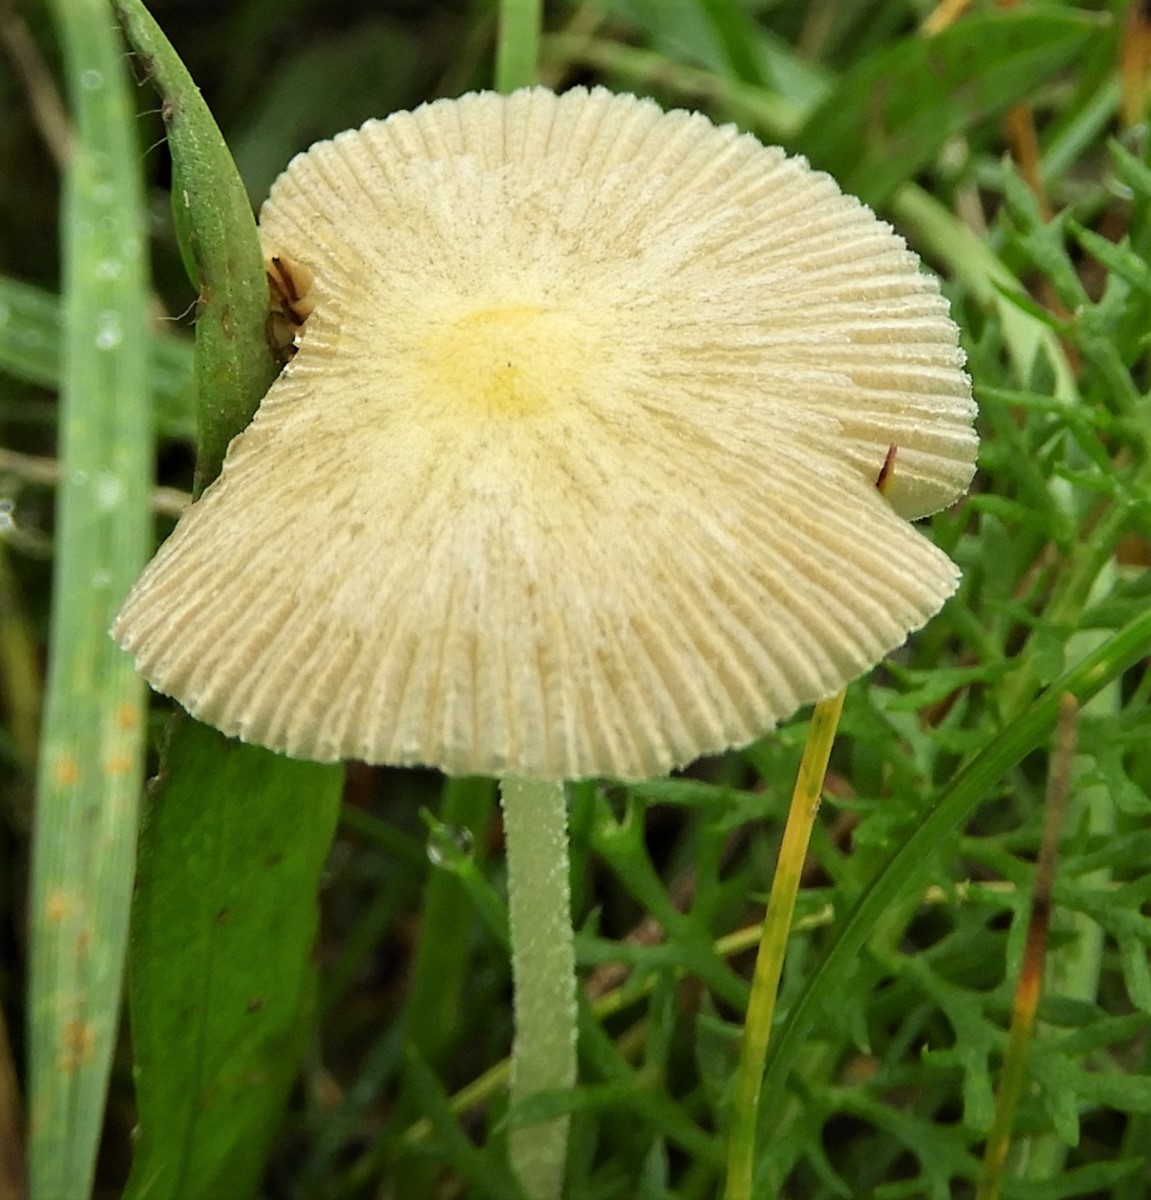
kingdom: Fungi
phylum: Basidiomycota
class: Agaricomycetes
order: Agaricales
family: Bolbitiaceae
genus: Bolbitius
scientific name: Bolbitius titubans
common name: almindelig gulhat
